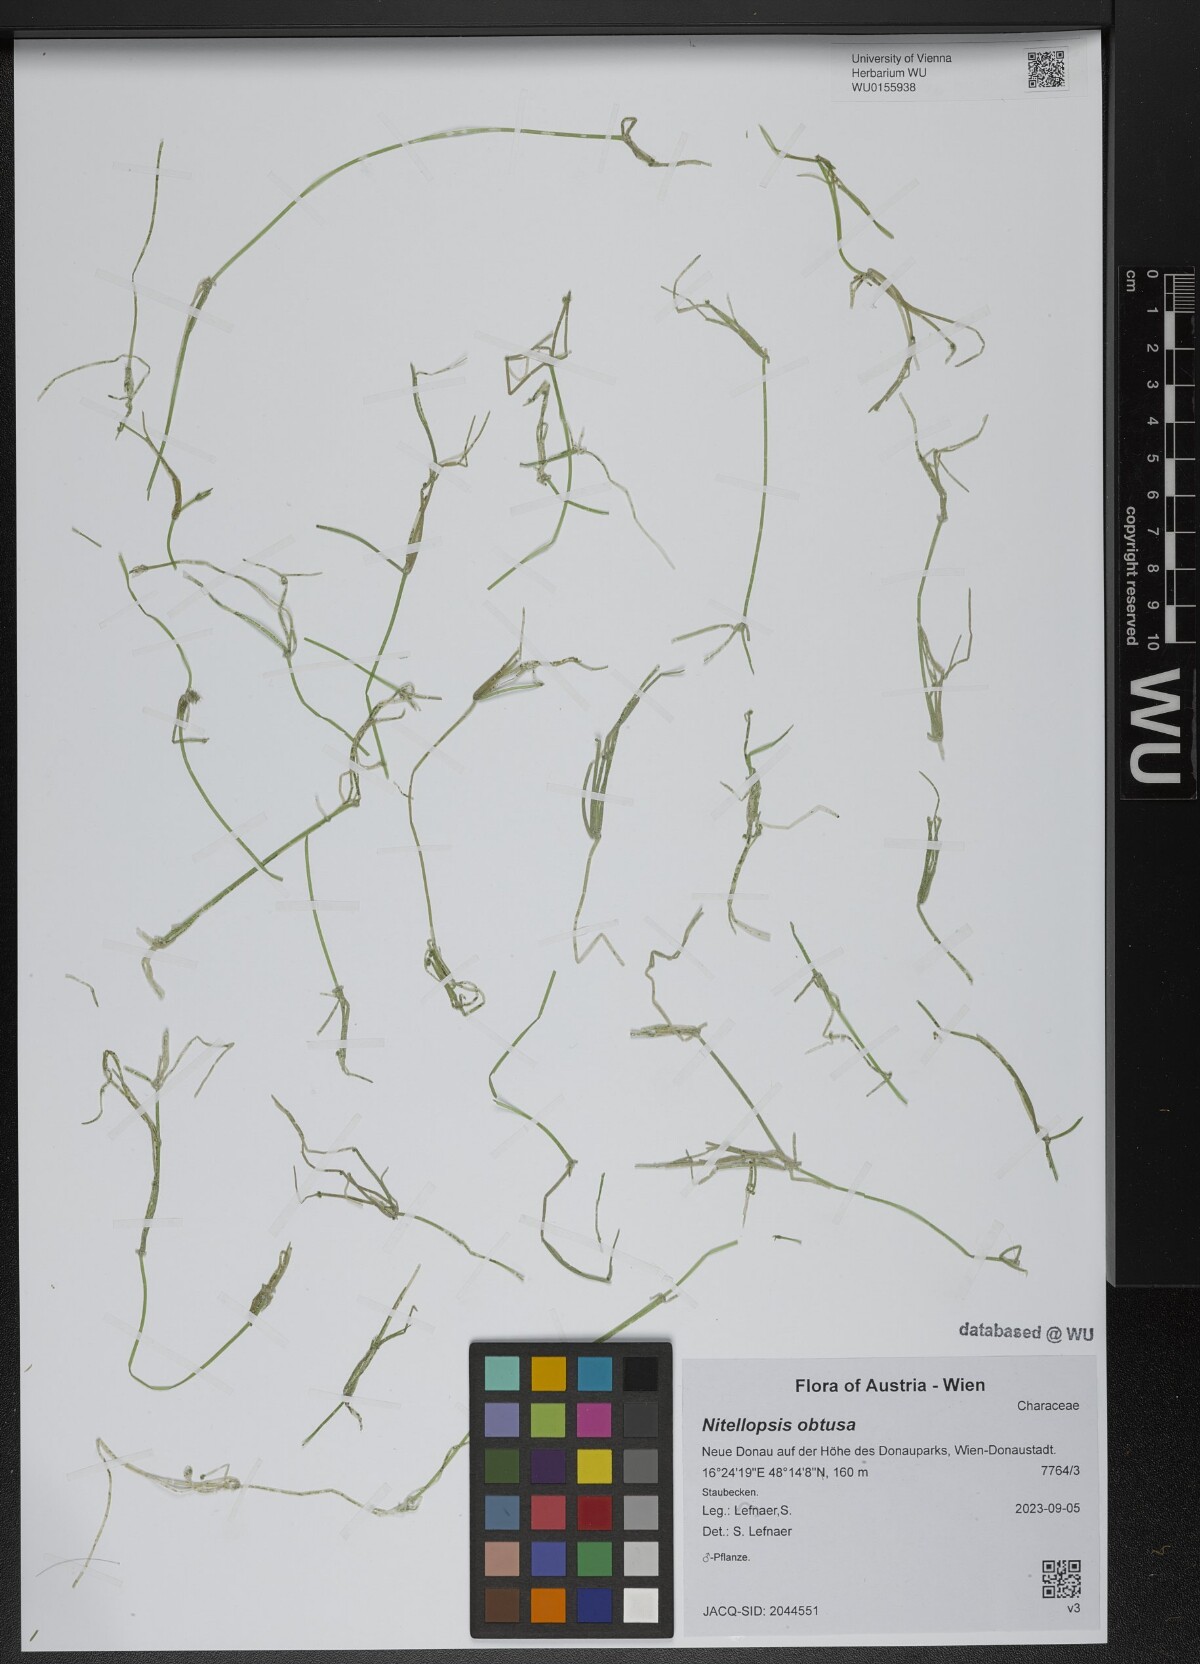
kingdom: Plantae
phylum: Charophyta
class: Charophyceae
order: Charales
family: Characeae
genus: Nitellopsis
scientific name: Nitellopsis obtusa
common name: Starry stonewort
